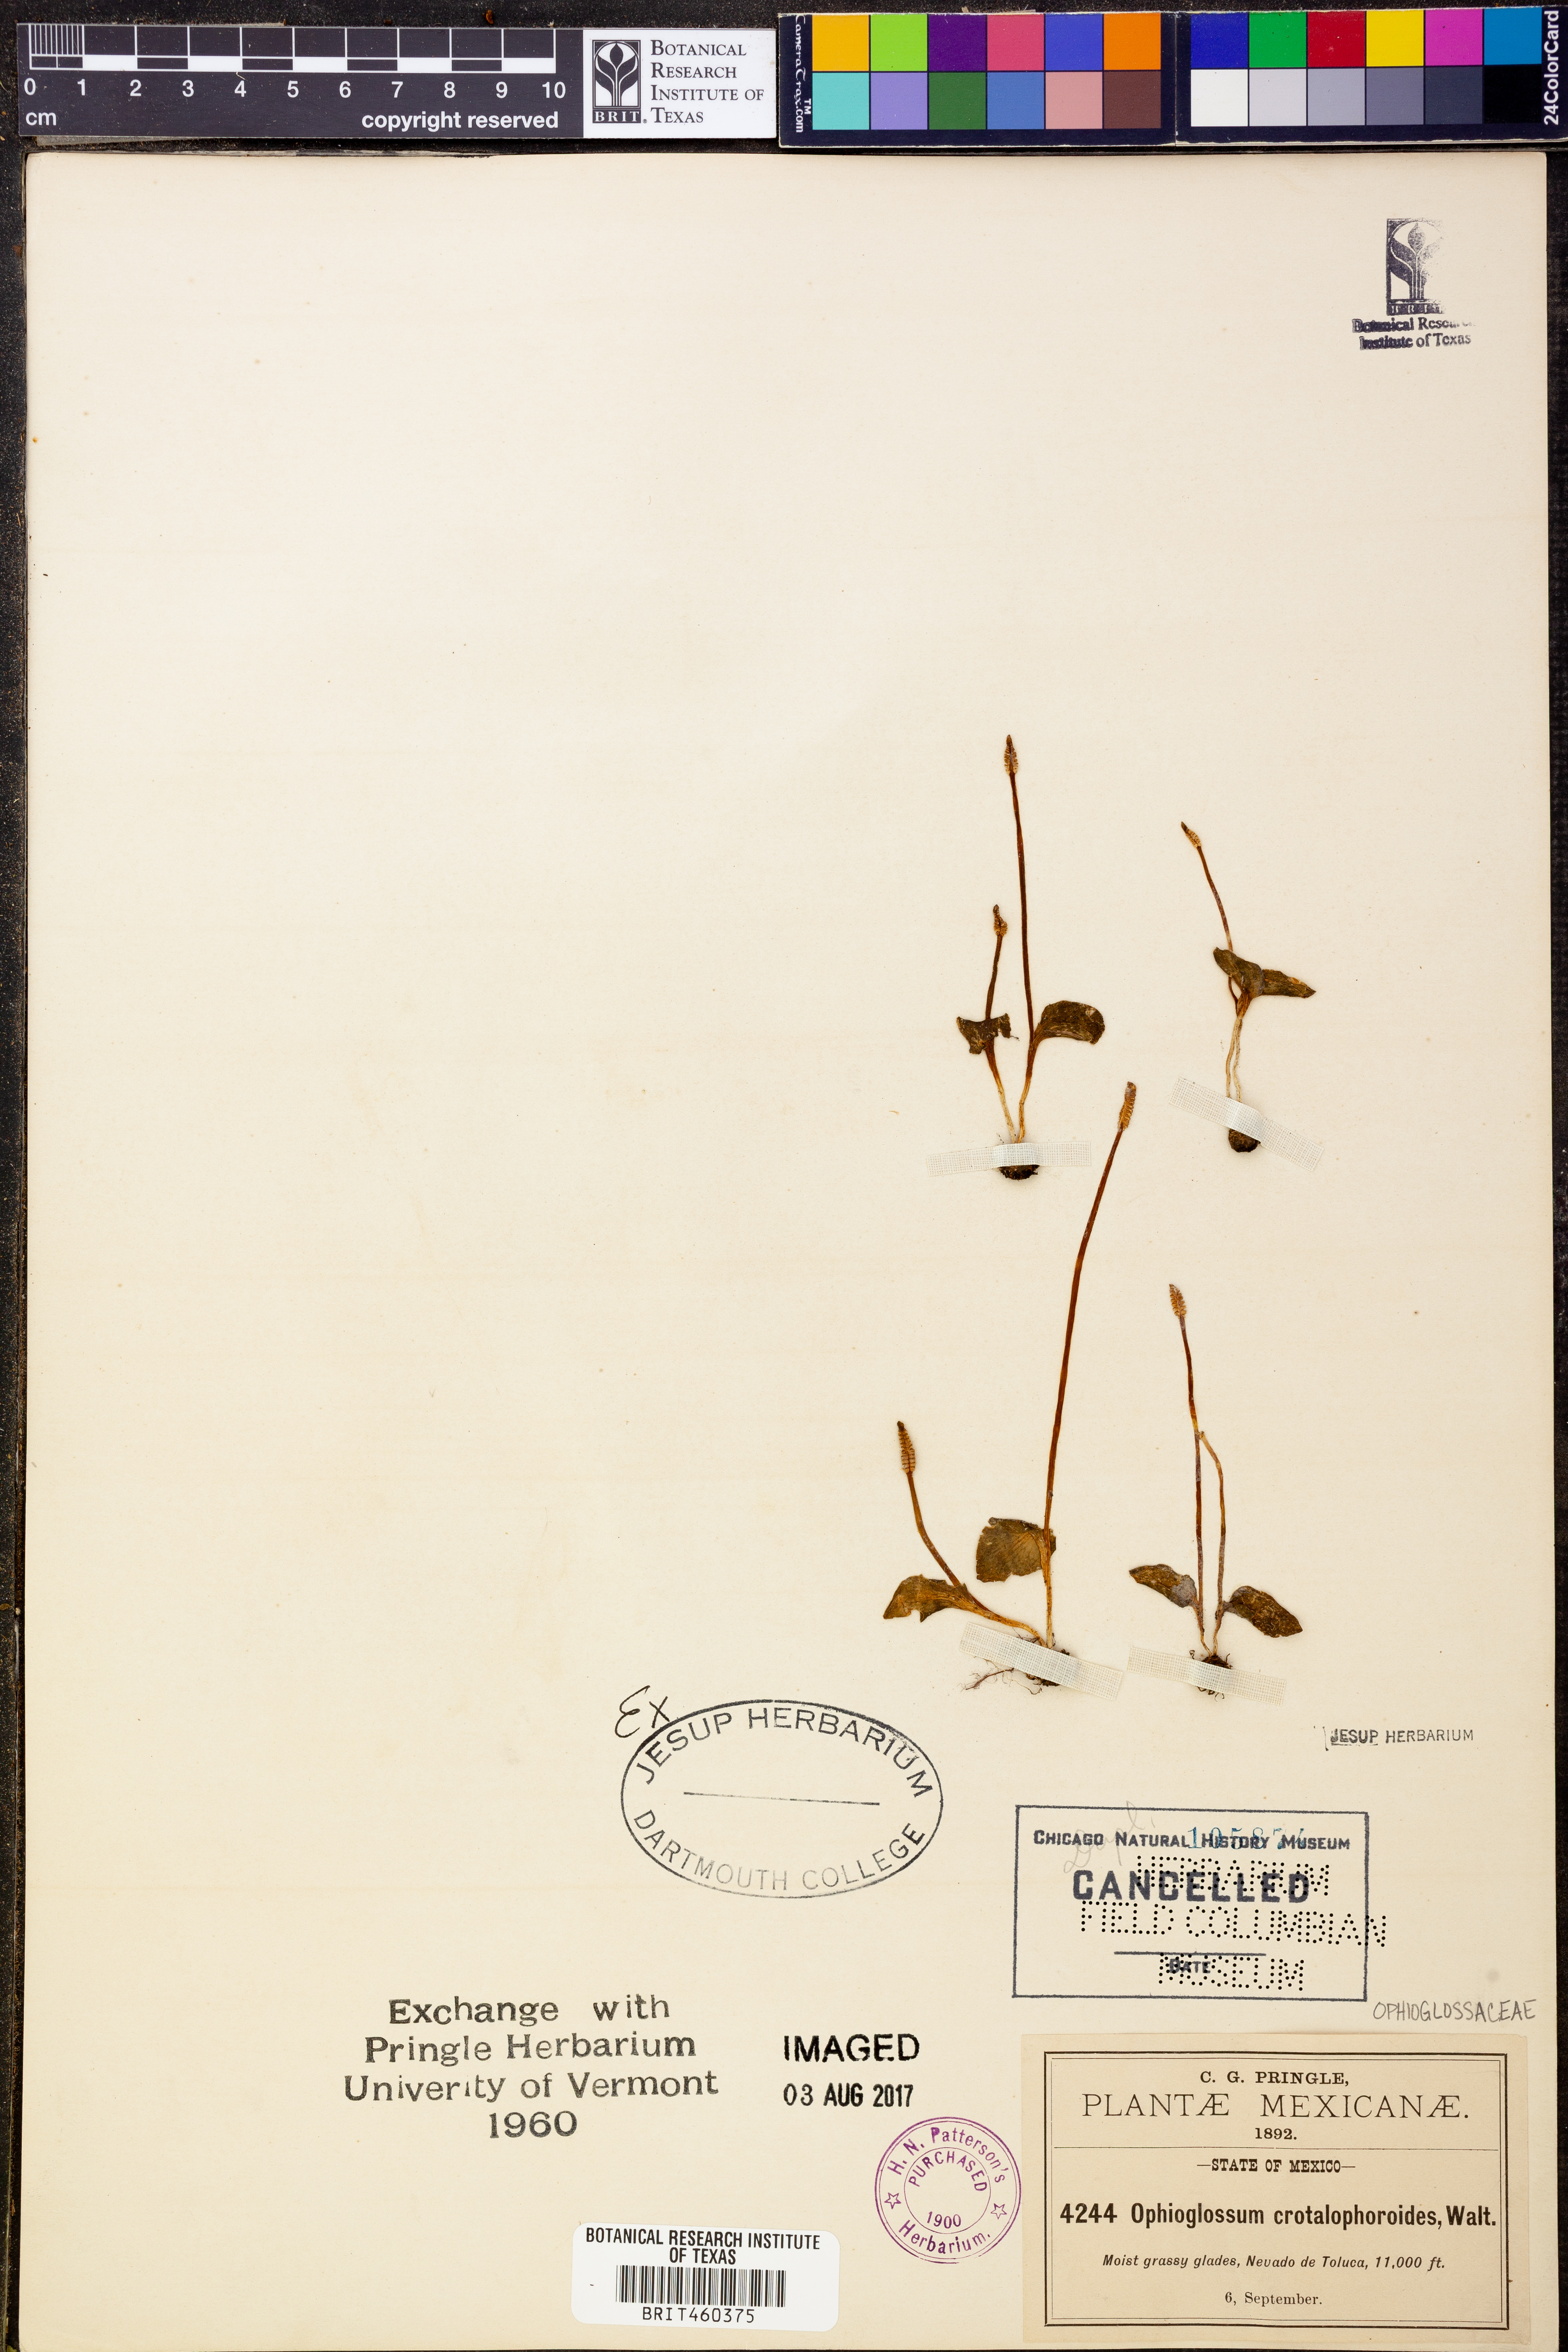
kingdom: Plantae
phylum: Tracheophyta
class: Polypodiopsida
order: Ophioglossales
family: Ophioglossaceae
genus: Ophioglossum
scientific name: Ophioglossum crotalophoroides
